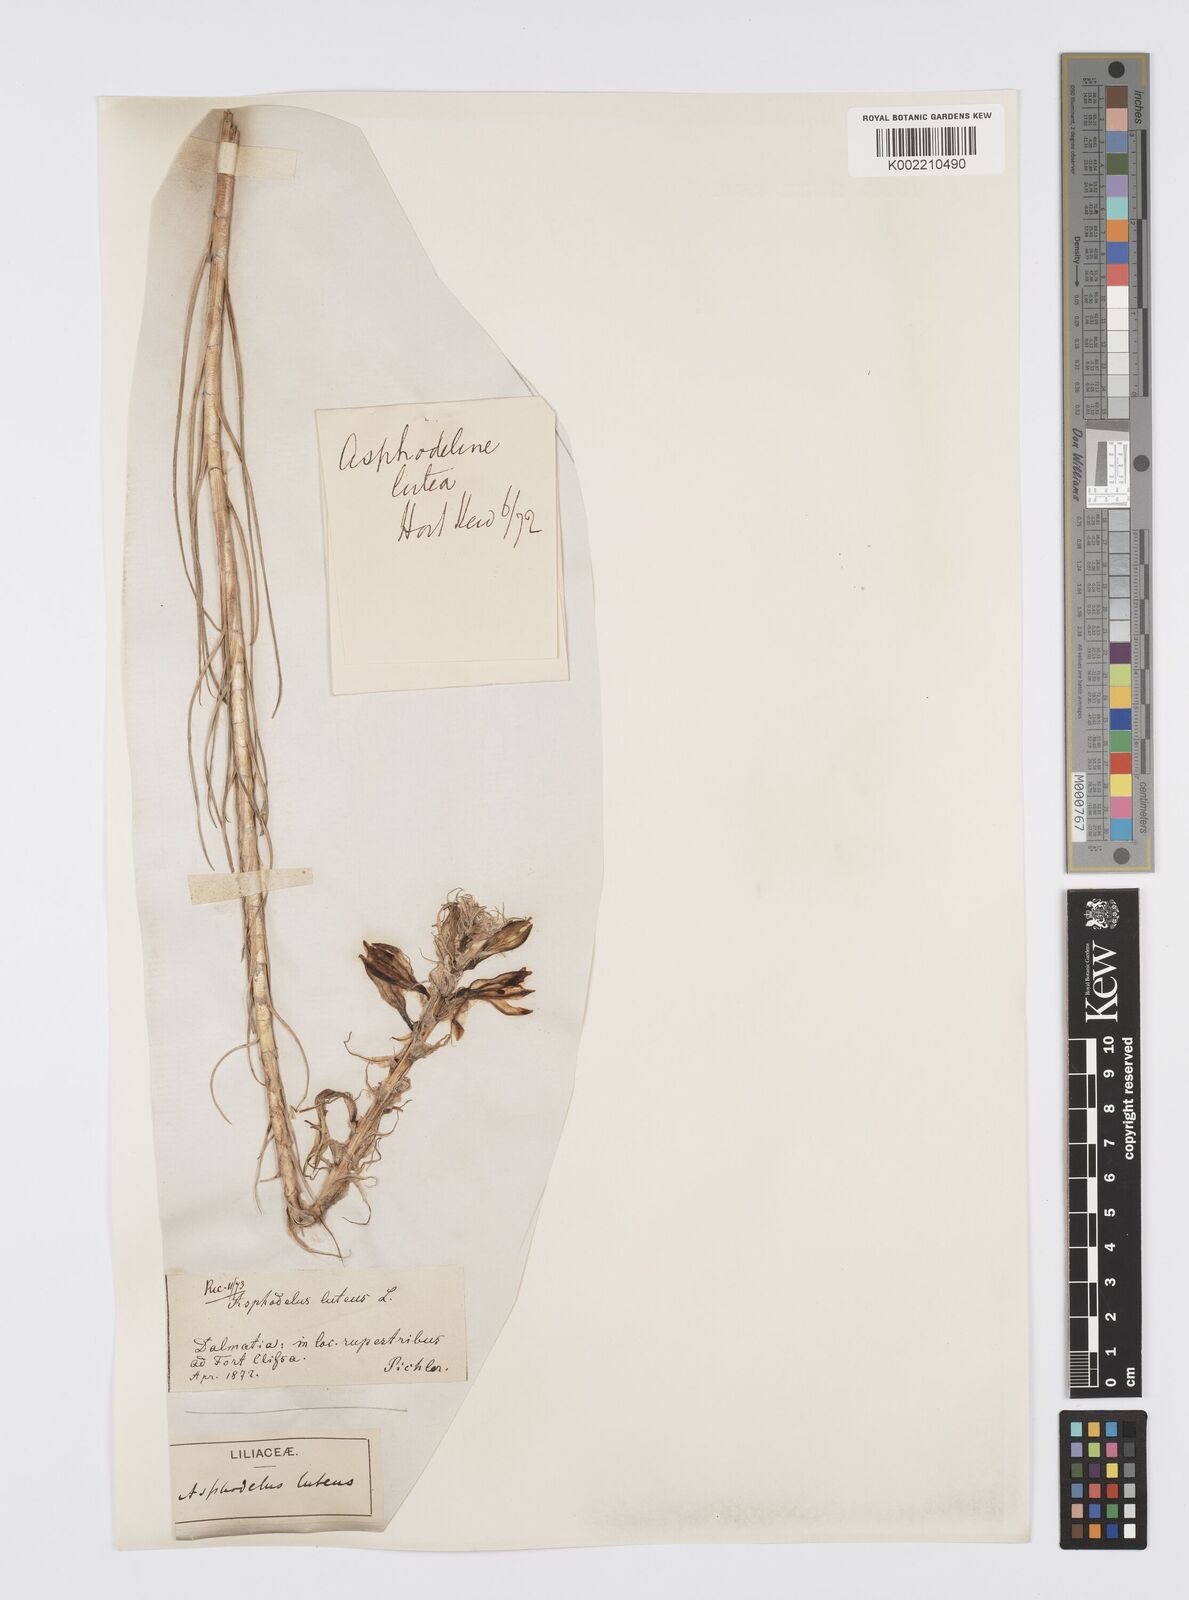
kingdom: Plantae
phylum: Tracheophyta
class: Liliopsida
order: Asparagales
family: Asphodelaceae
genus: Asphodeline
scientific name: Asphodeline lutea
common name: Yellow asphodel
